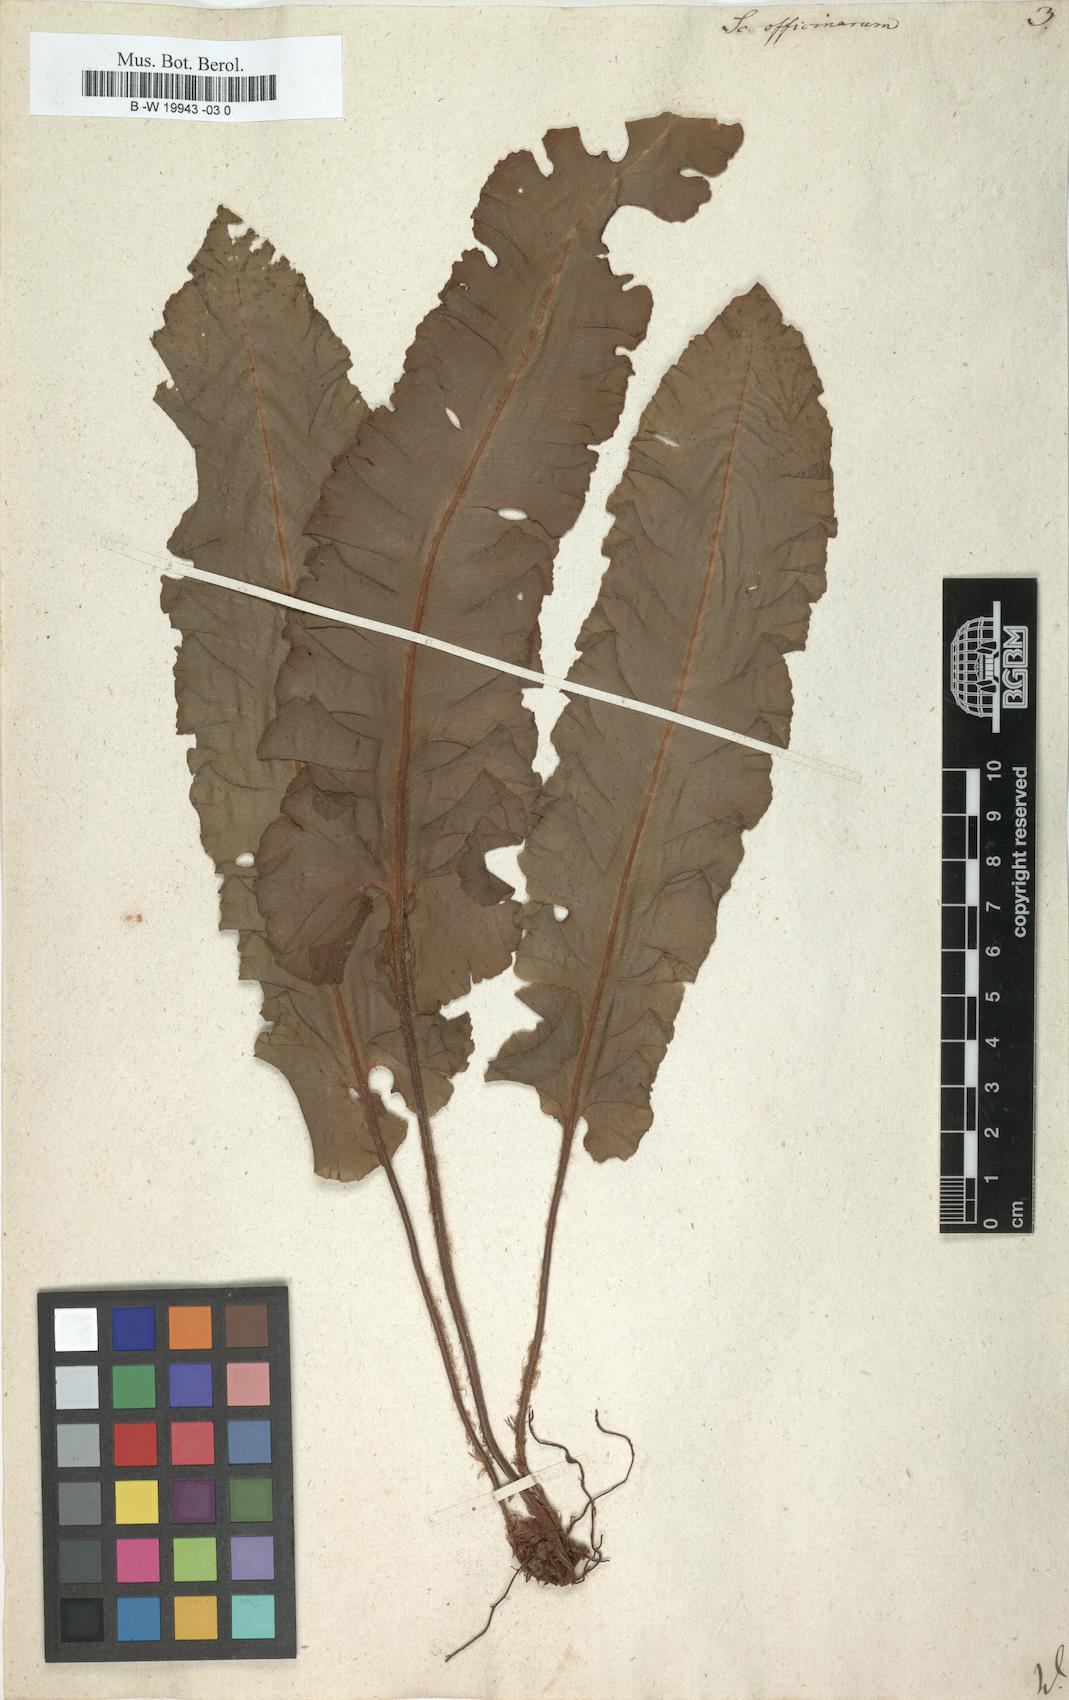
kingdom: Plantae
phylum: Tracheophyta
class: Polypodiopsida
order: Polypodiales
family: Aspleniaceae
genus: Asplenium
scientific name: Asplenium scolopendrium
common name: Hart's-tongue fern
